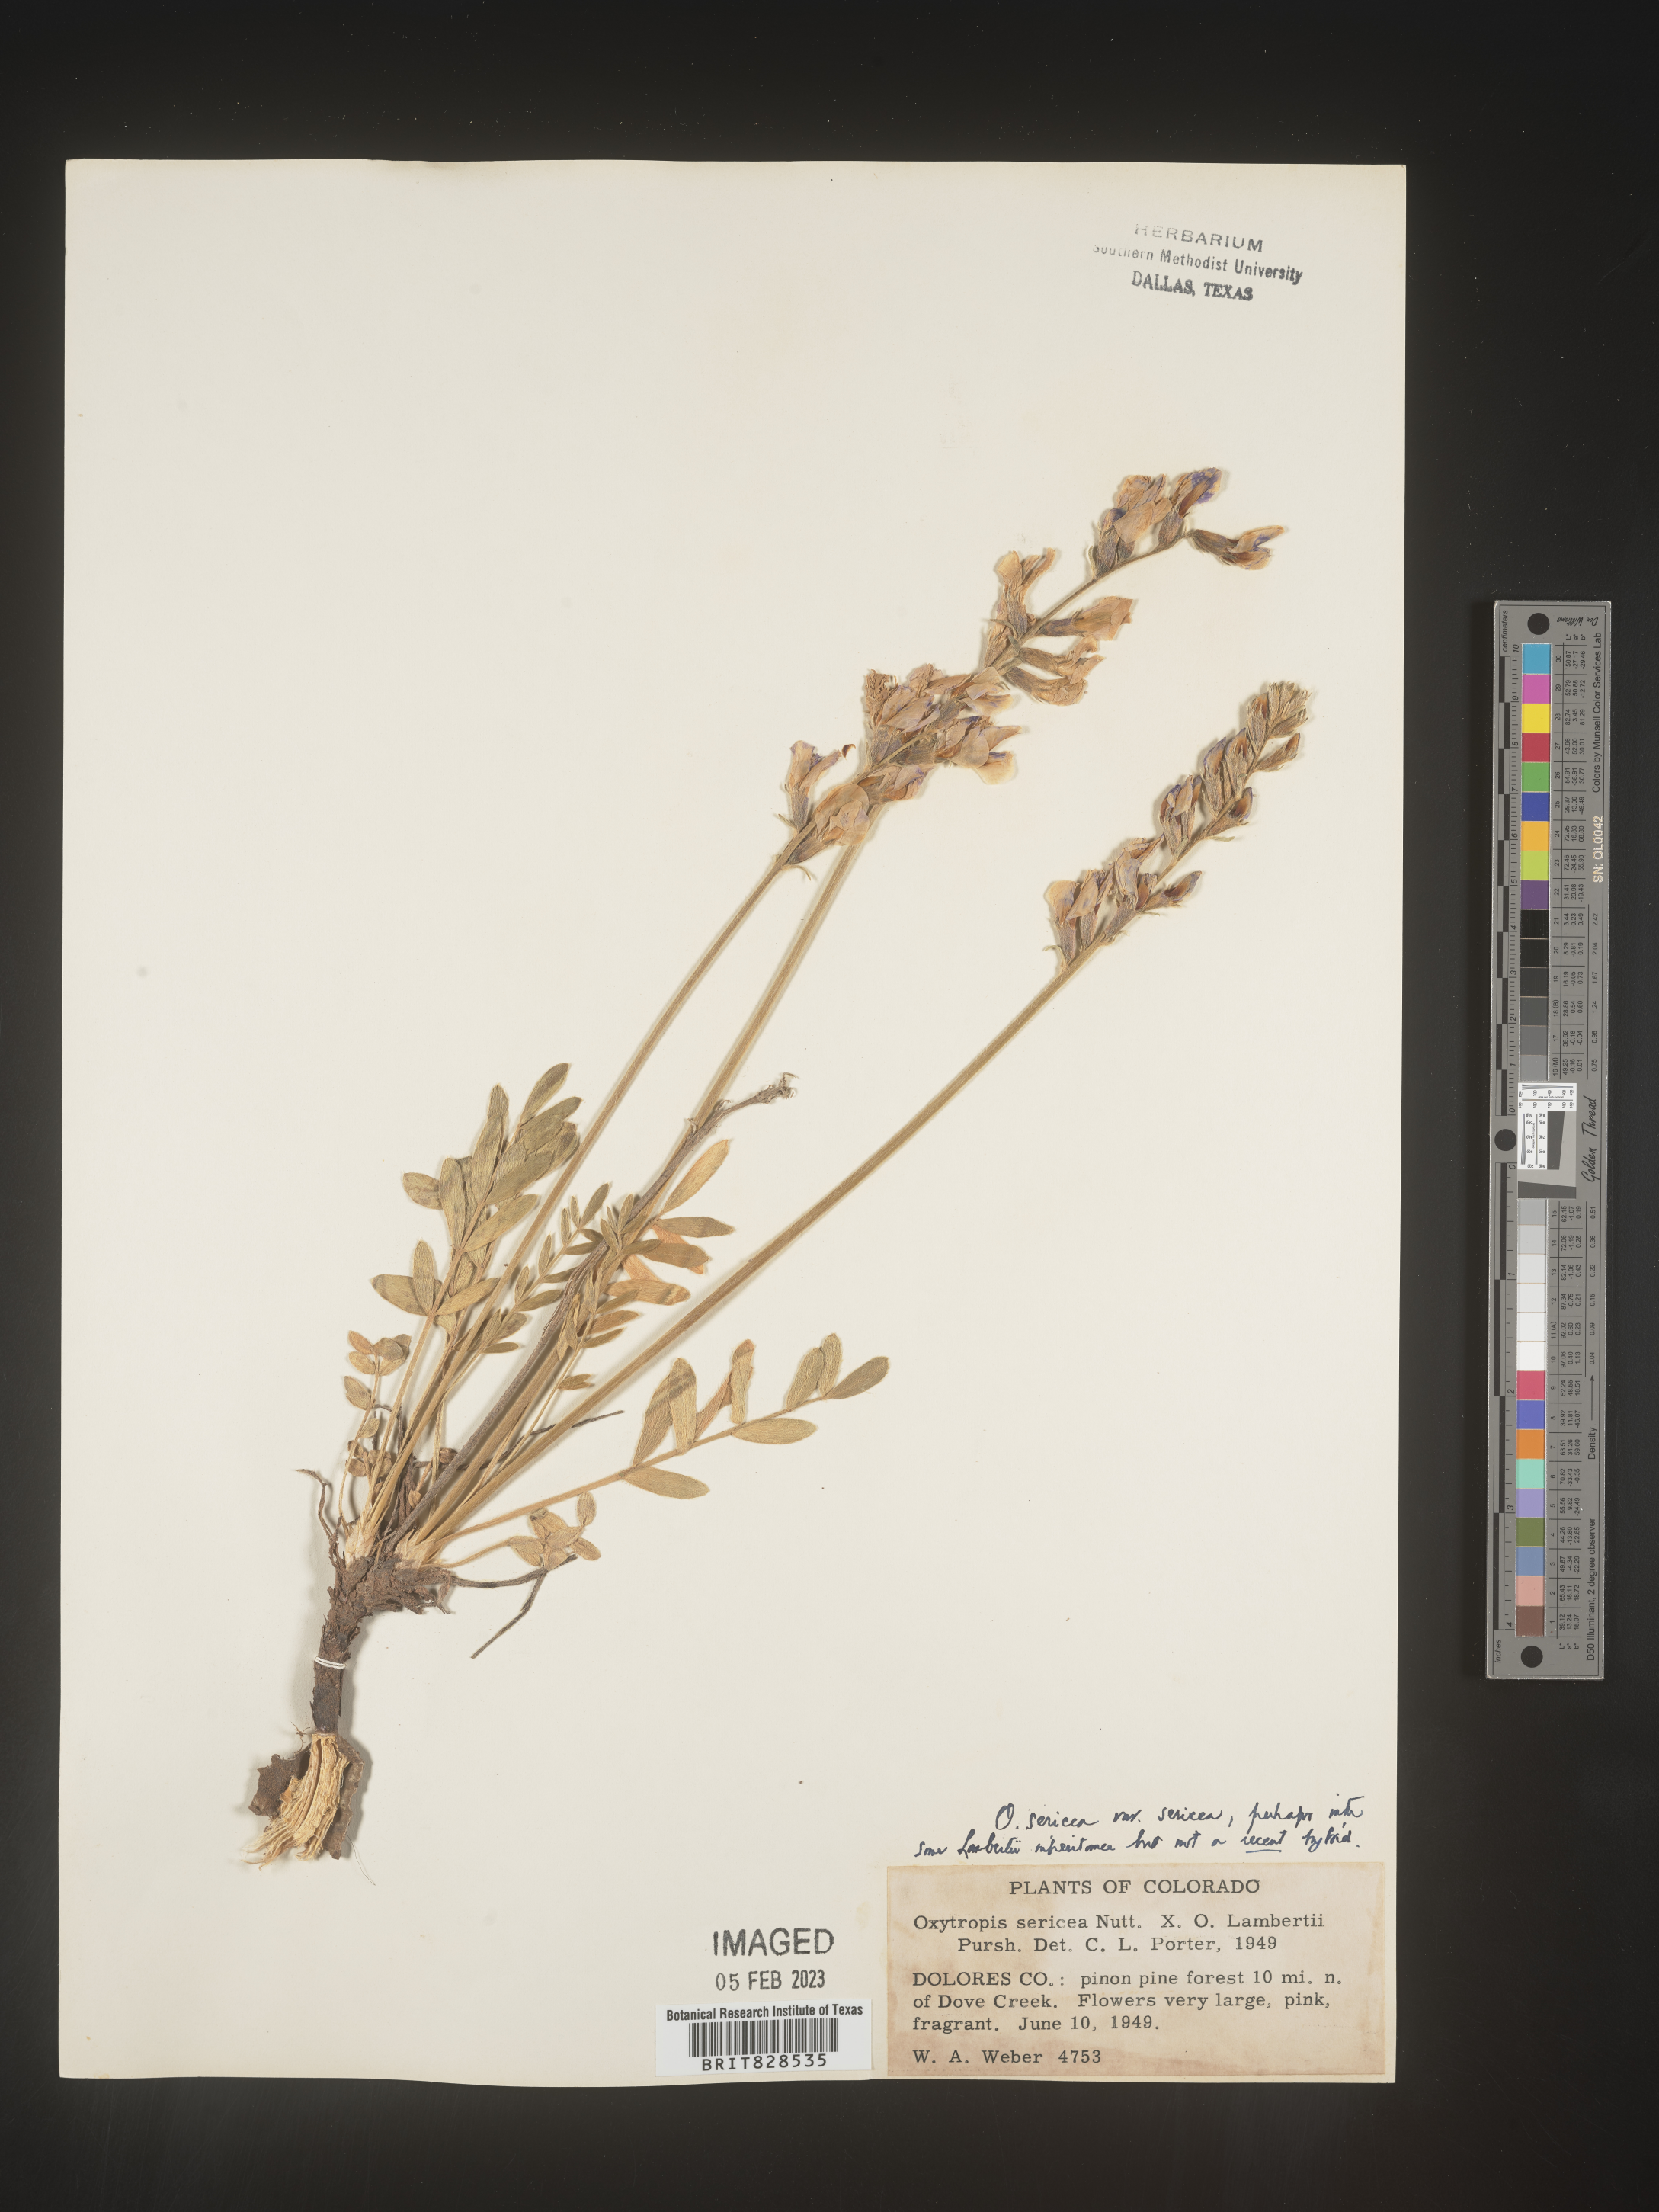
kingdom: Plantae
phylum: Tracheophyta
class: Magnoliopsida
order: Fabales
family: Fabaceae
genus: Oxytropis
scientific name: Oxytropis sericea
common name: Silky locoweed
